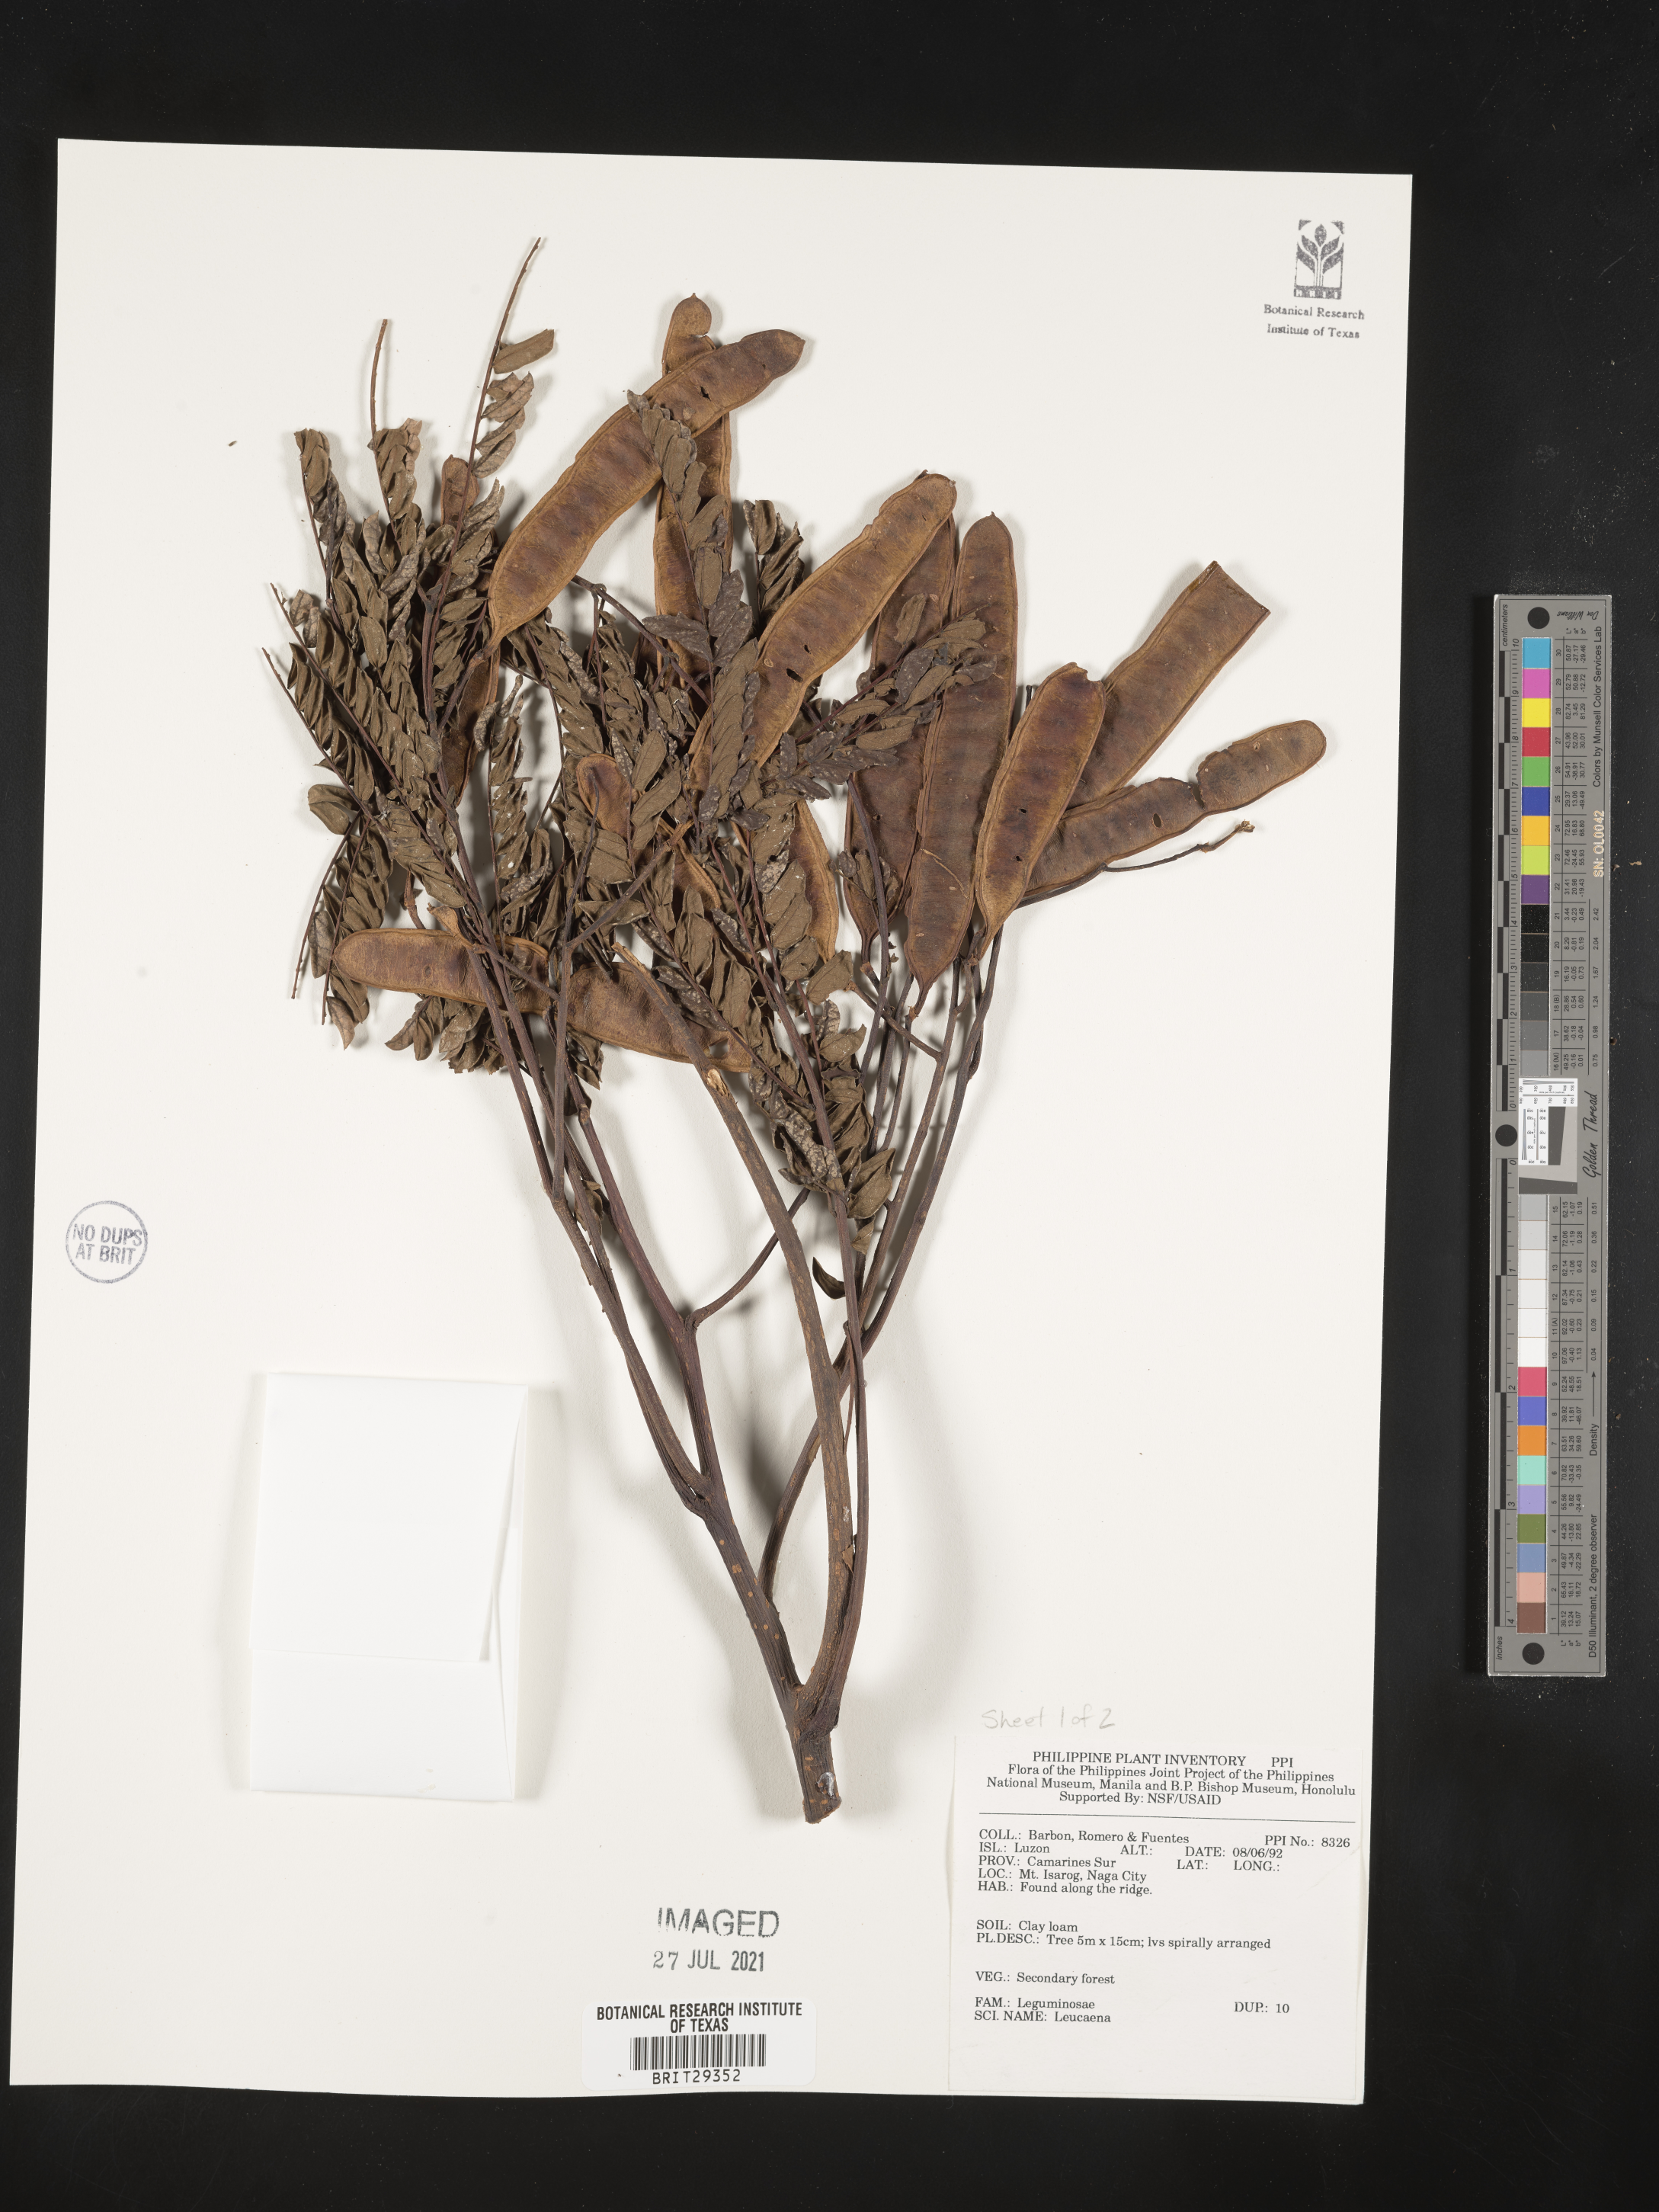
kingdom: Plantae
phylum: Tracheophyta
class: Magnoliopsida
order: Fabales
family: Fabaceae
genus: Leucaena
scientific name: Leucaena
